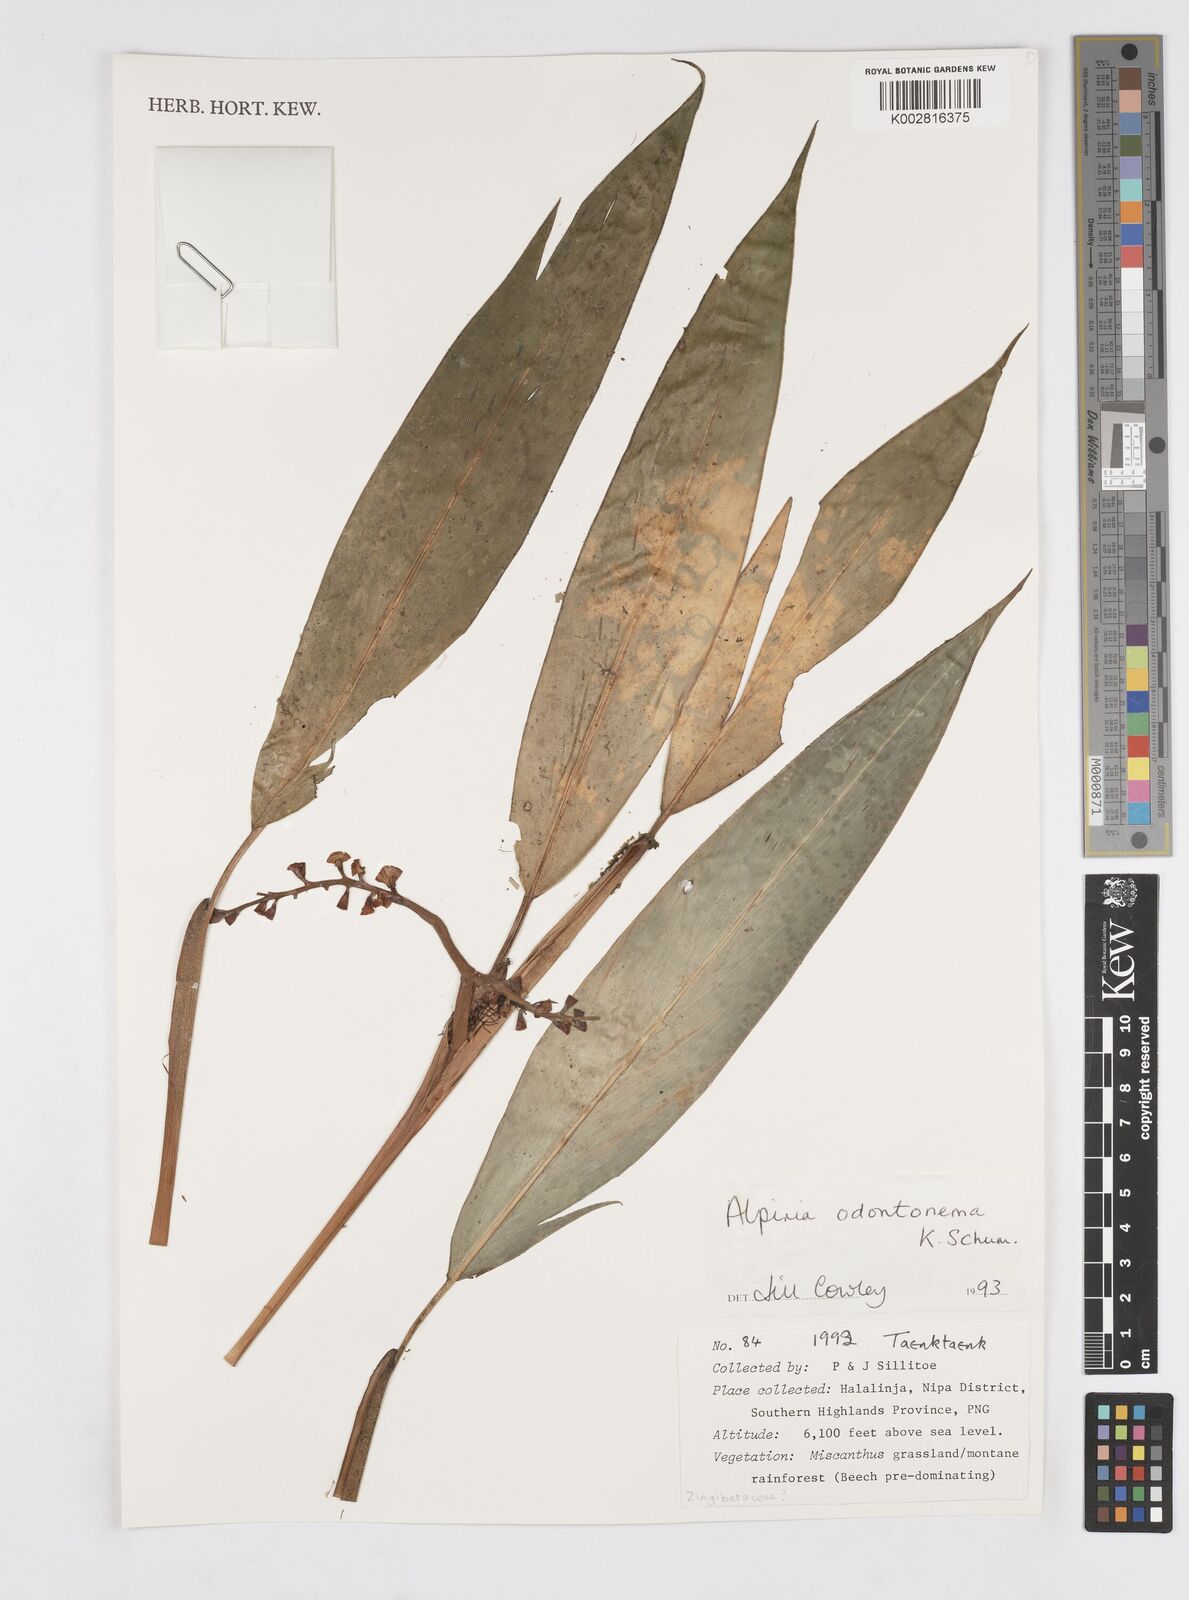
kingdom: Plantae
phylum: Tracheophyta
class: Liliopsida
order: Zingiberales
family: Zingiberaceae
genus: Alpinia
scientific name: Alpinia odontonema
